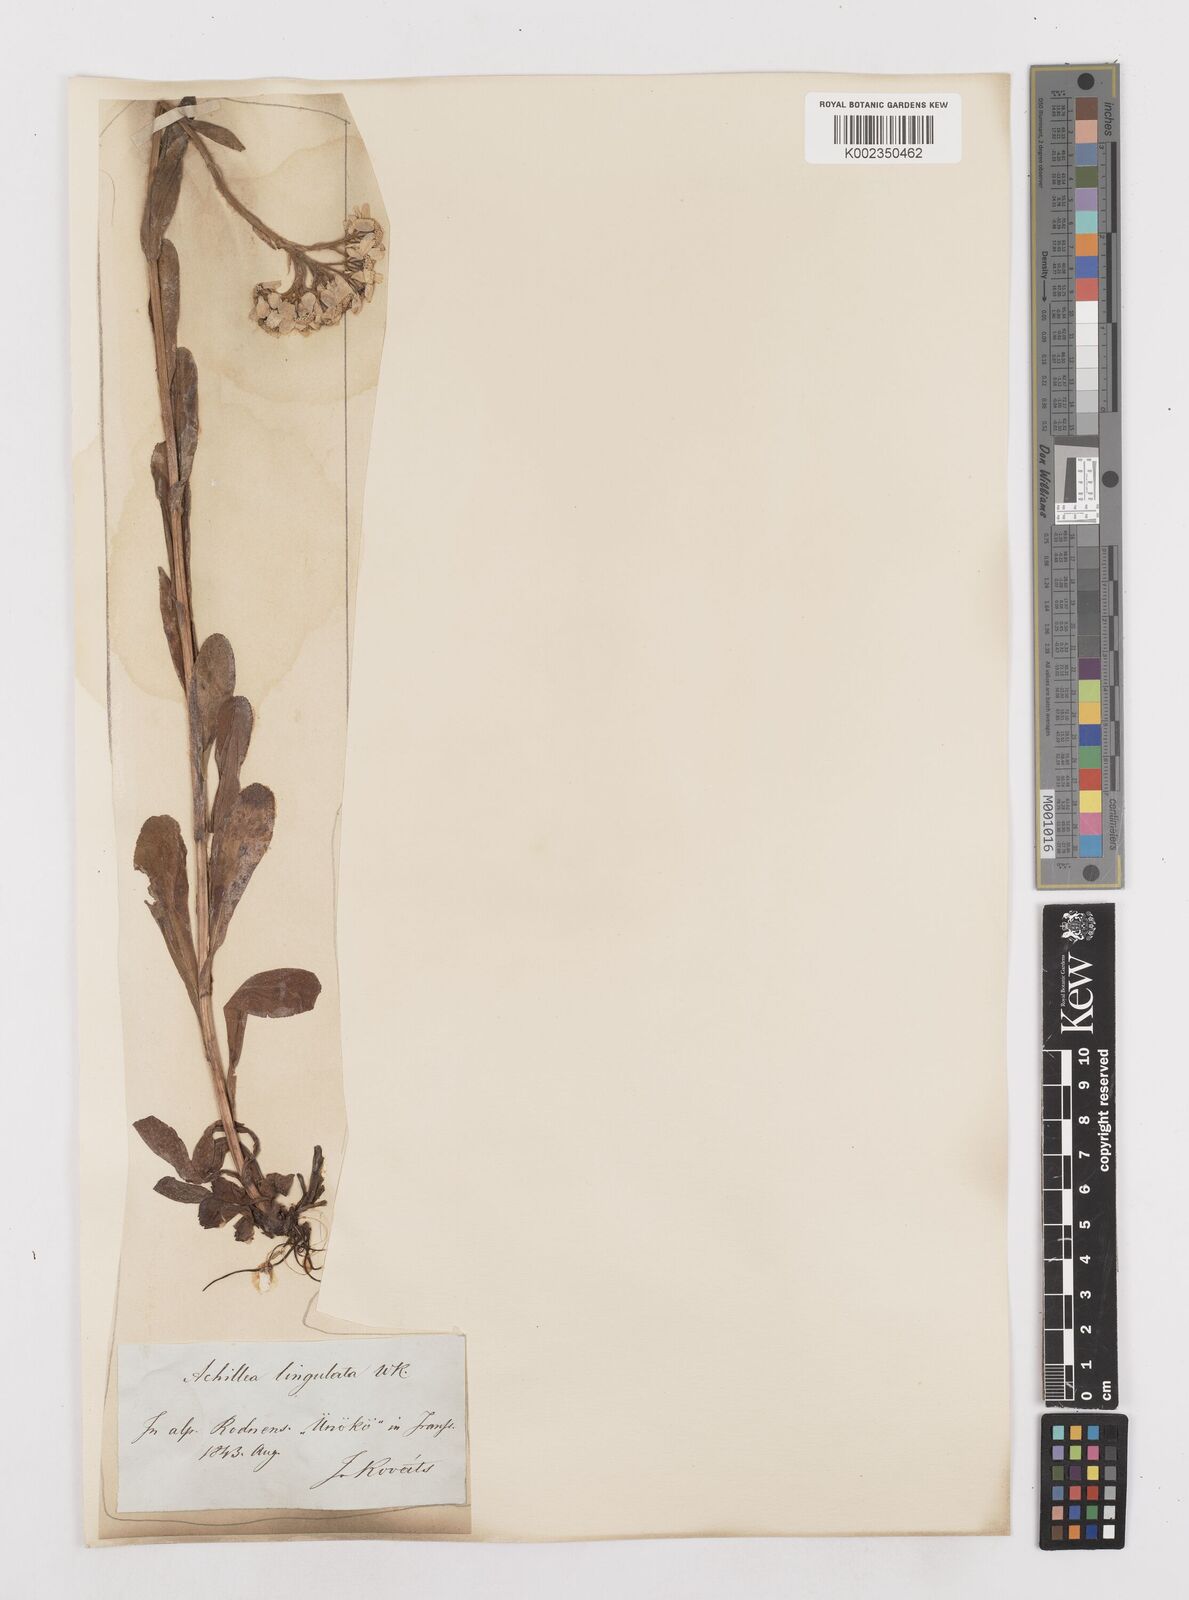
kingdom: Plantae
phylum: Tracheophyta
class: Magnoliopsida
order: Asterales
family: Asteraceae
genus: Achillea
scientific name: Achillea lingulata
